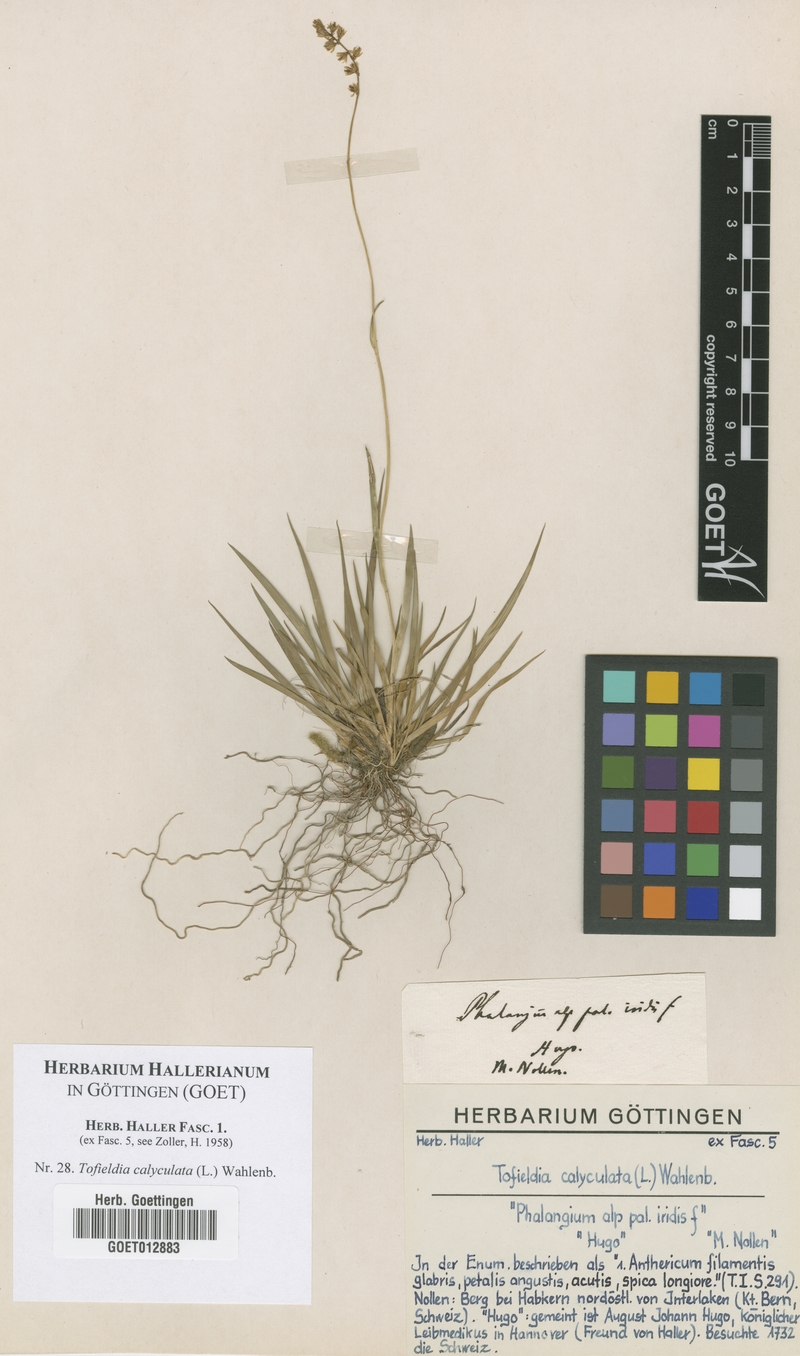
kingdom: Plantae
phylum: Tracheophyta
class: Liliopsida
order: Alismatales
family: Tofieldiaceae
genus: Tofieldia
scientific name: Tofieldia calyculata
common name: German-asphodel
